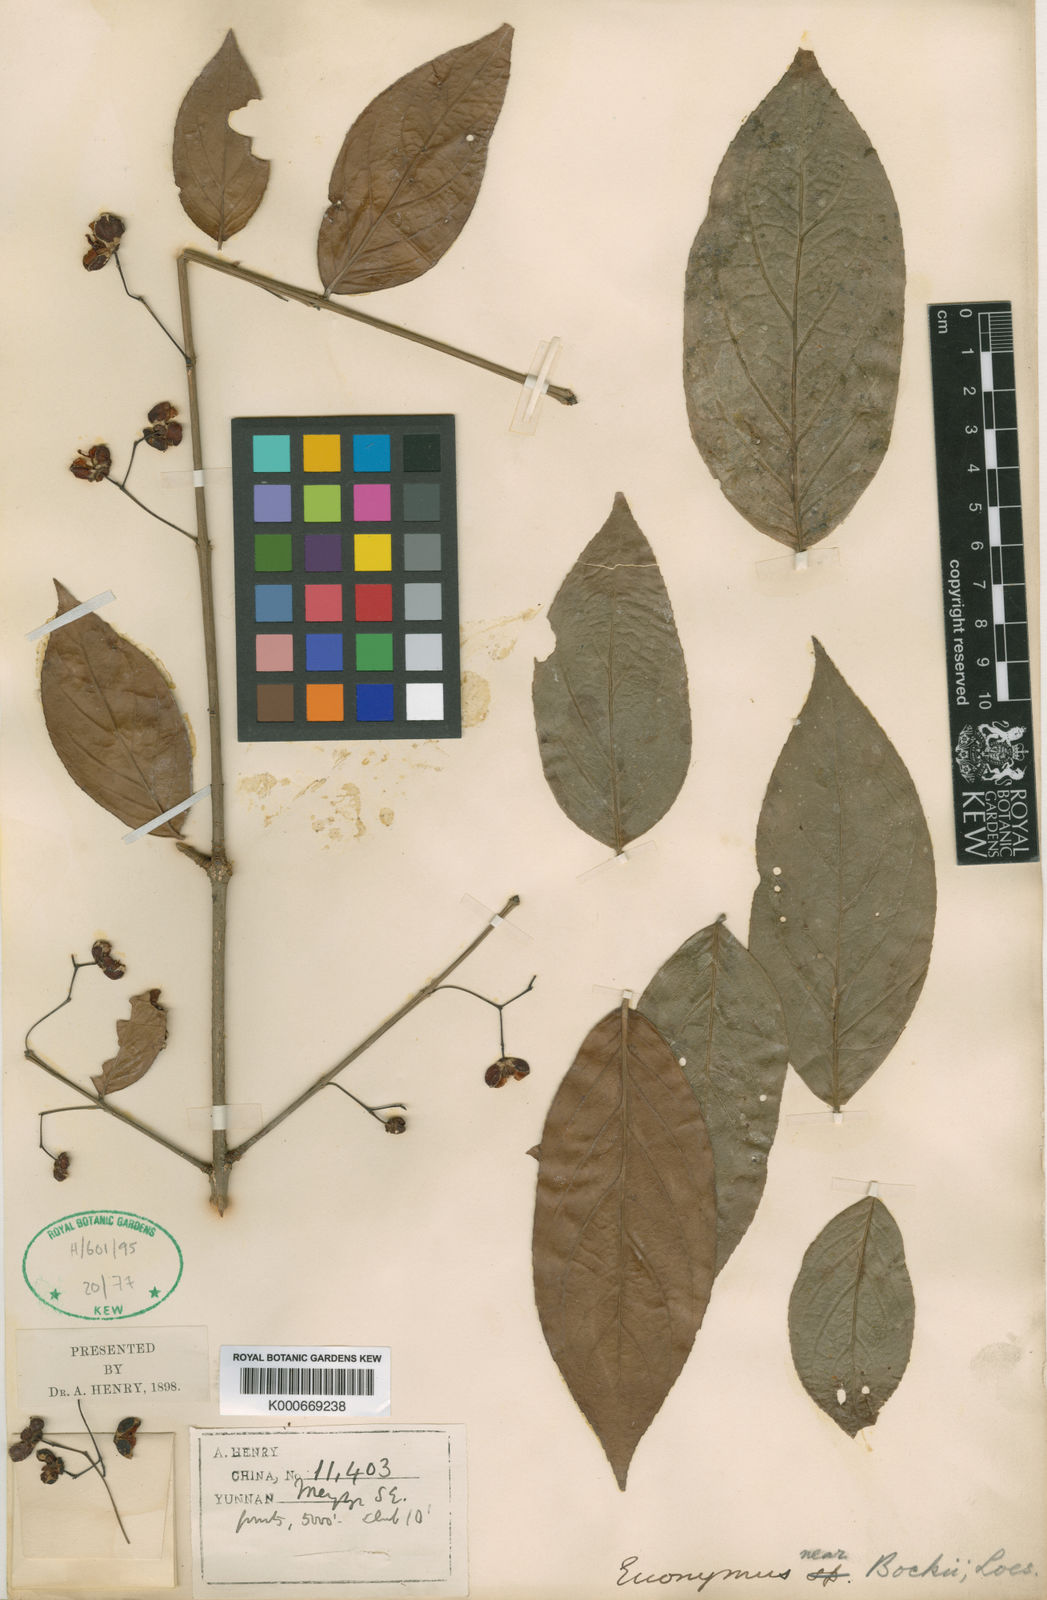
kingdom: Plantae
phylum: Tracheophyta
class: Magnoliopsida
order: Celastrales
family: Celastraceae
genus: Euonymus
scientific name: Euonymus bockii
